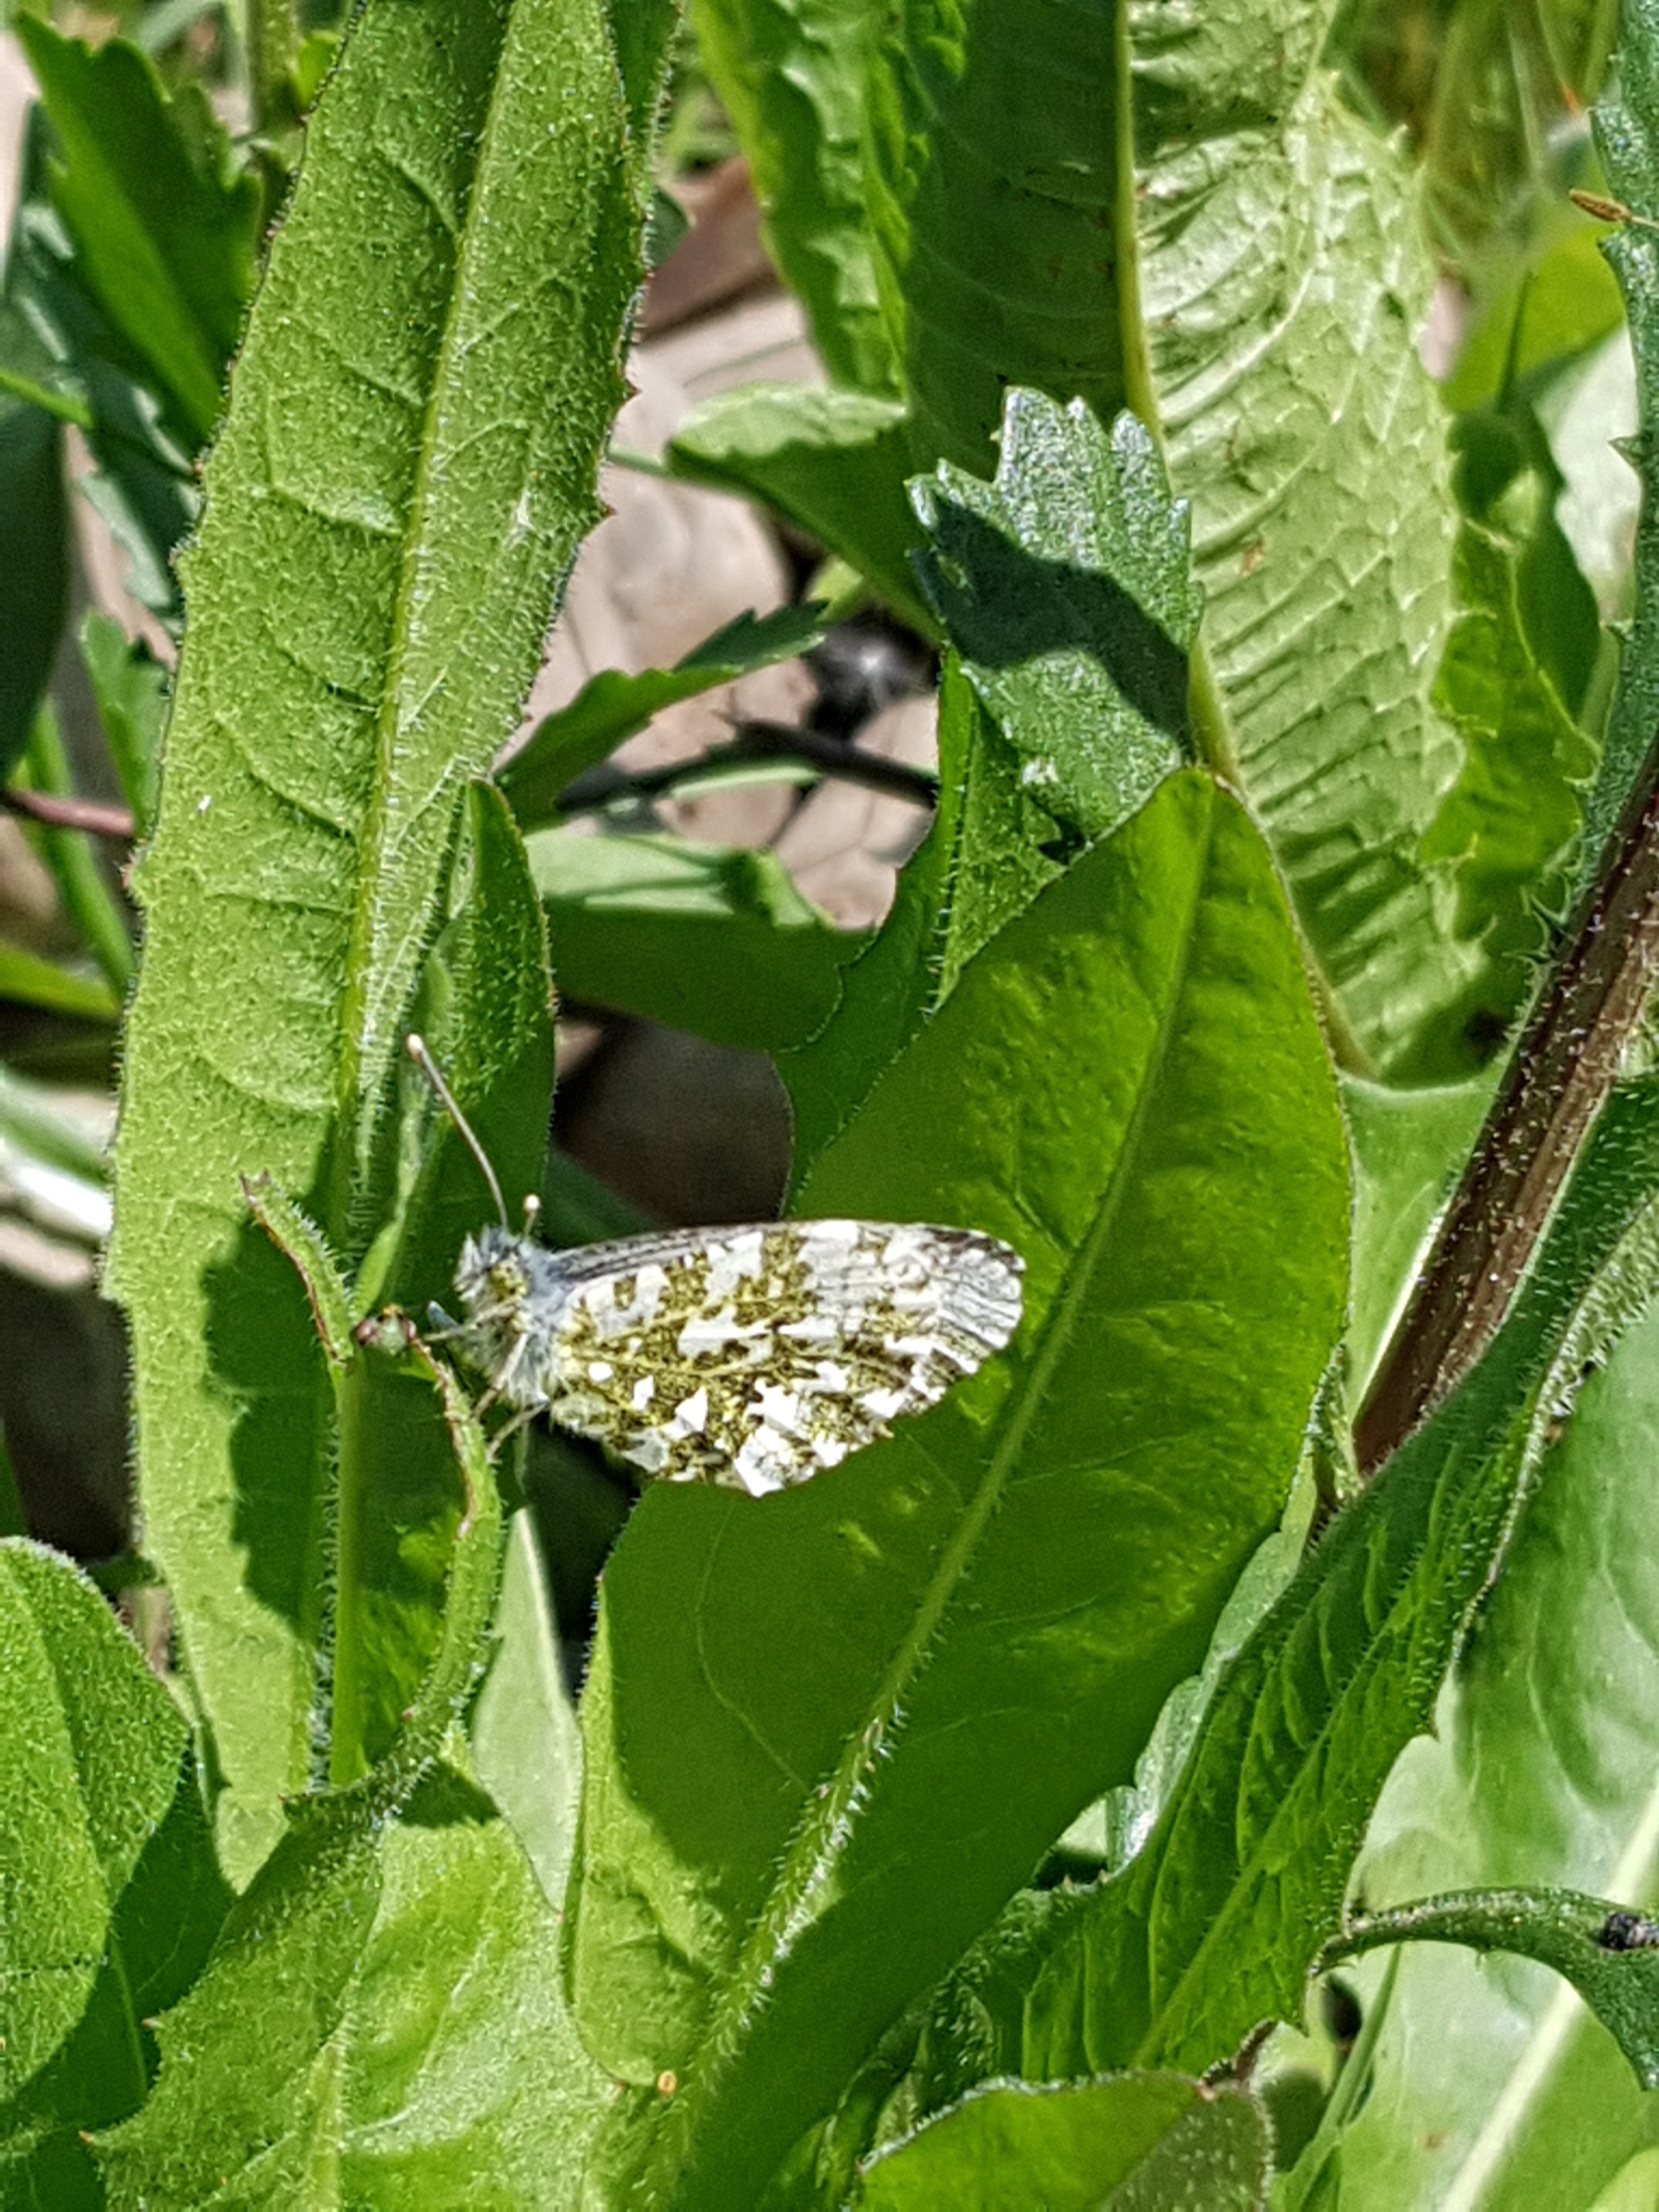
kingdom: Animalia
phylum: Arthropoda
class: Insecta
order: Lepidoptera
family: Pieridae
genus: Anthocharis
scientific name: Anthocharis cardamines
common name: Aurora
